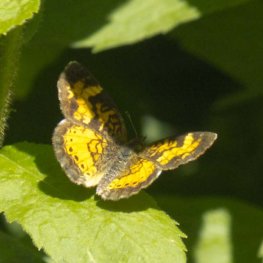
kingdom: Animalia
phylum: Arthropoda
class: Insecta
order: Lepidoptera
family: Nymphalidae
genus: Phyciodes
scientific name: Phyciodes tharos
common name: Northern Crescent
